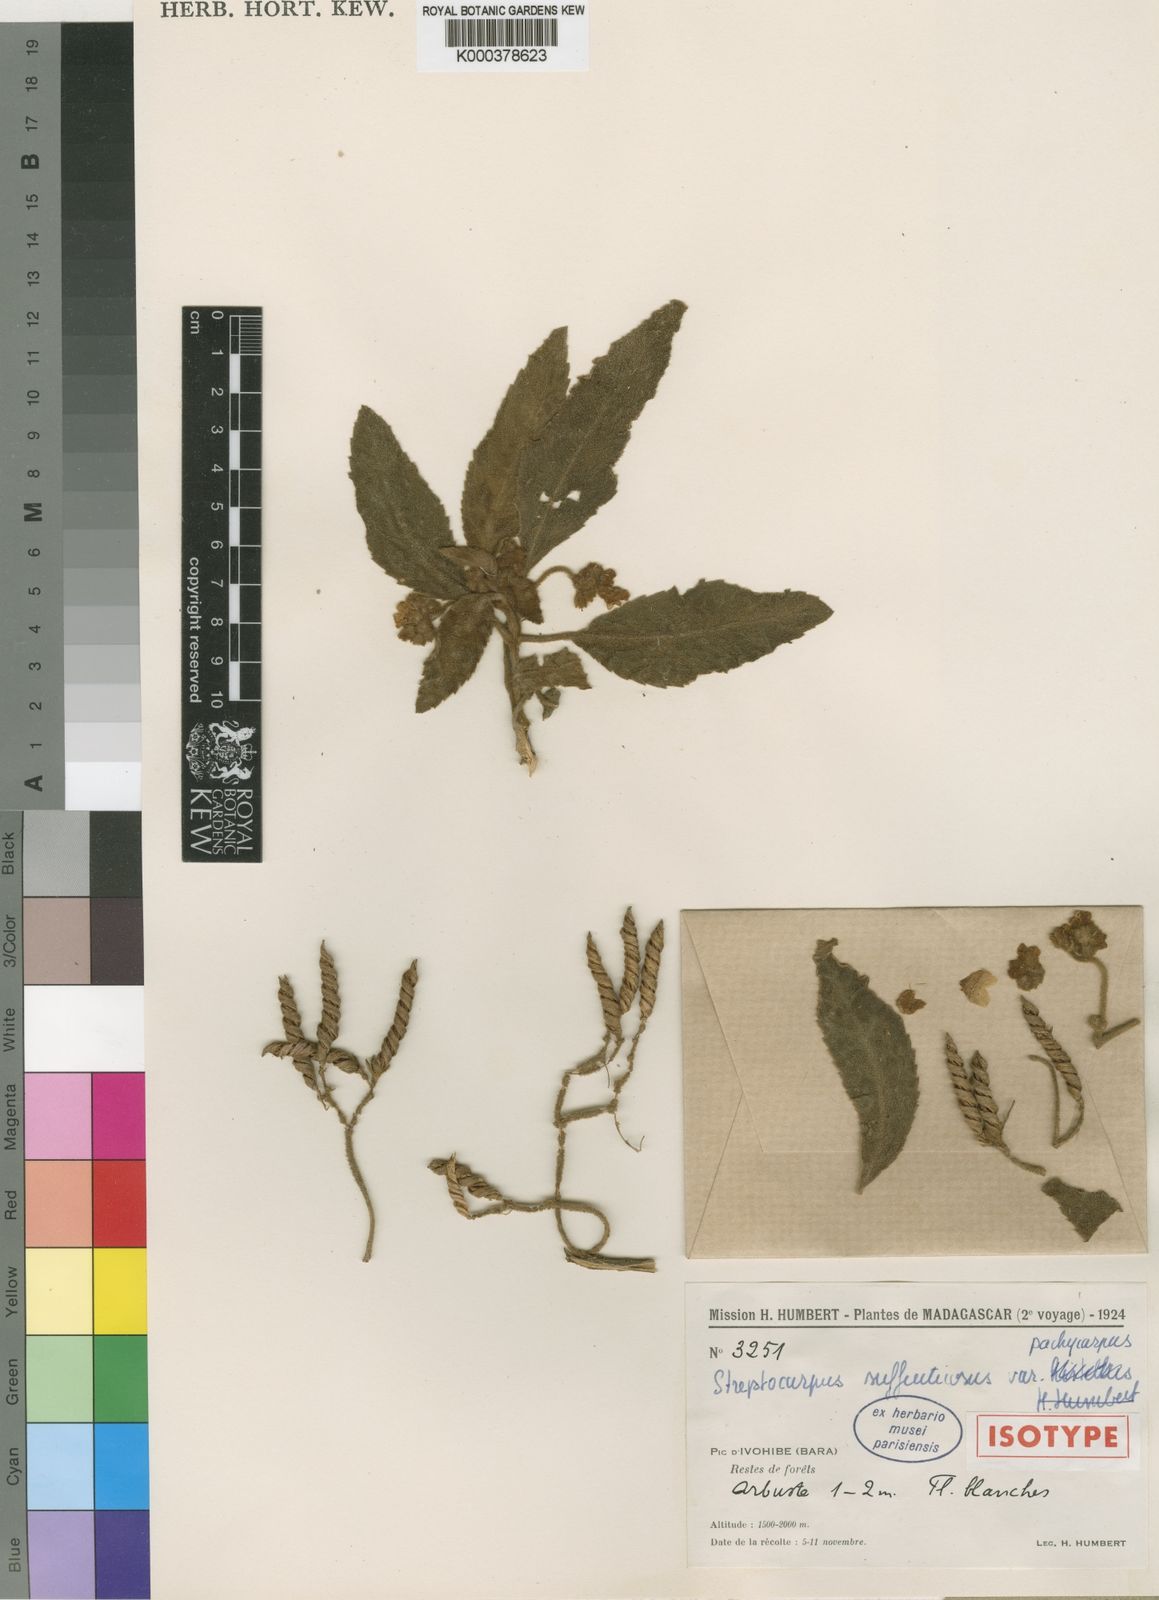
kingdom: Plantae
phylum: Tracheophyta
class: Magnoliopsida
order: Lamiales
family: Gesneriaceae
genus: Streptocarpus
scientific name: Streptocarpus suffruticosus
